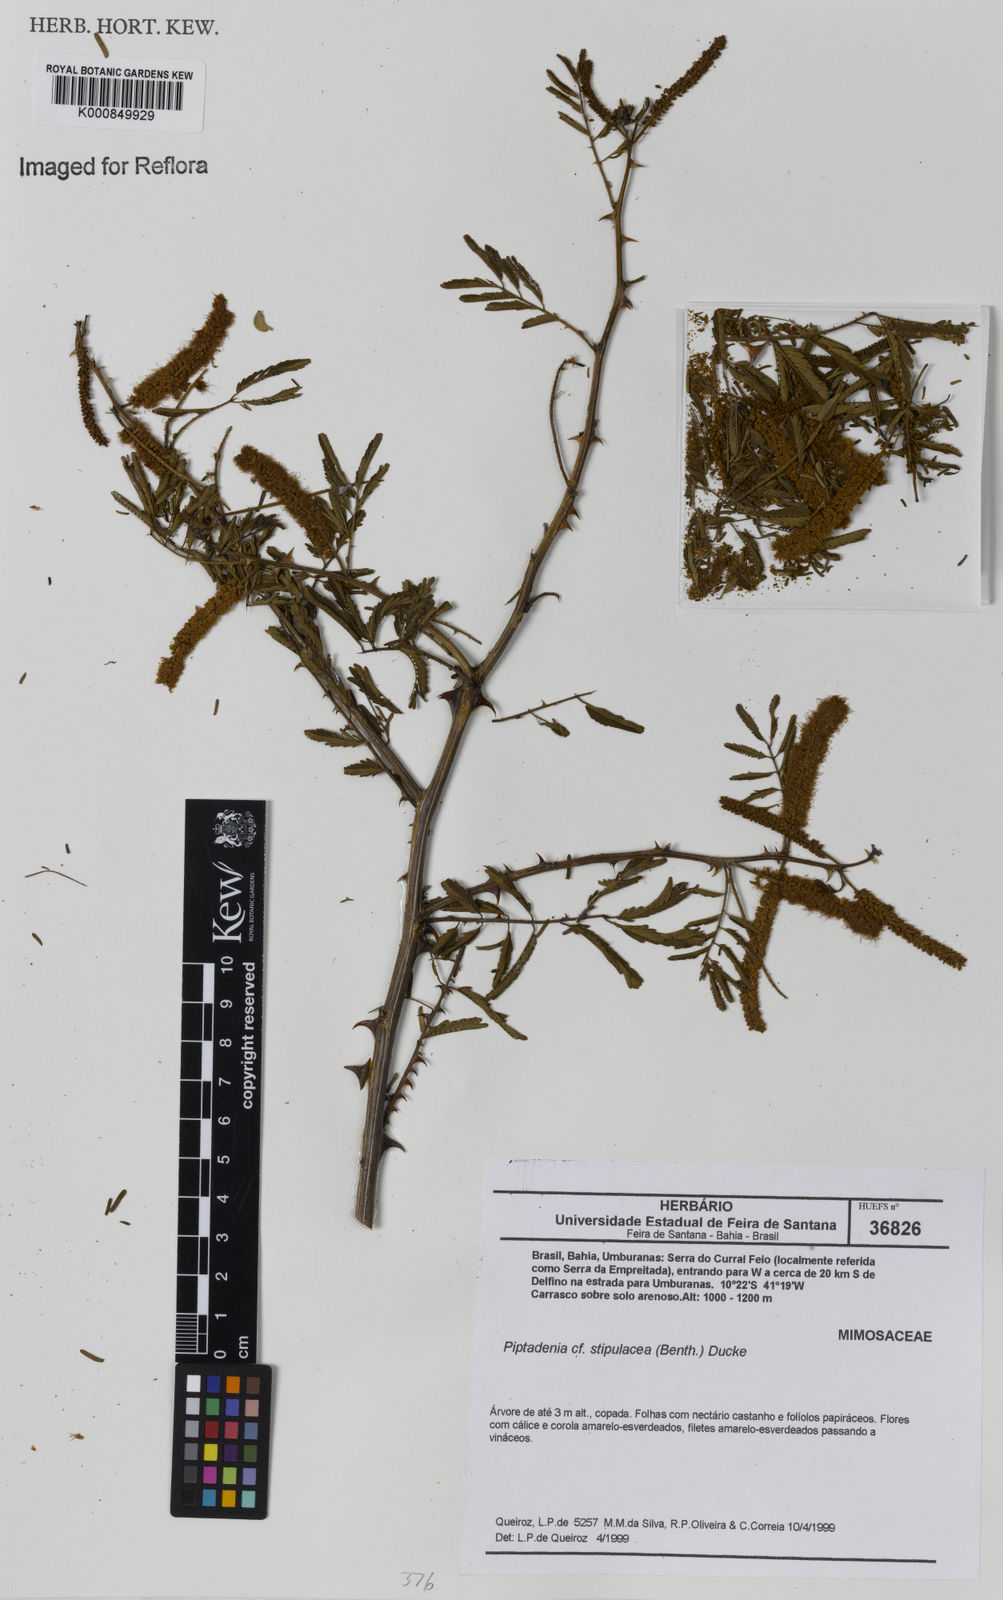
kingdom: Plantae
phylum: Tracheophyta
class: Magnoliopsida
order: Fabales
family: Fabaceae
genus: Piptadenia
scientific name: Piptadenia retusa
